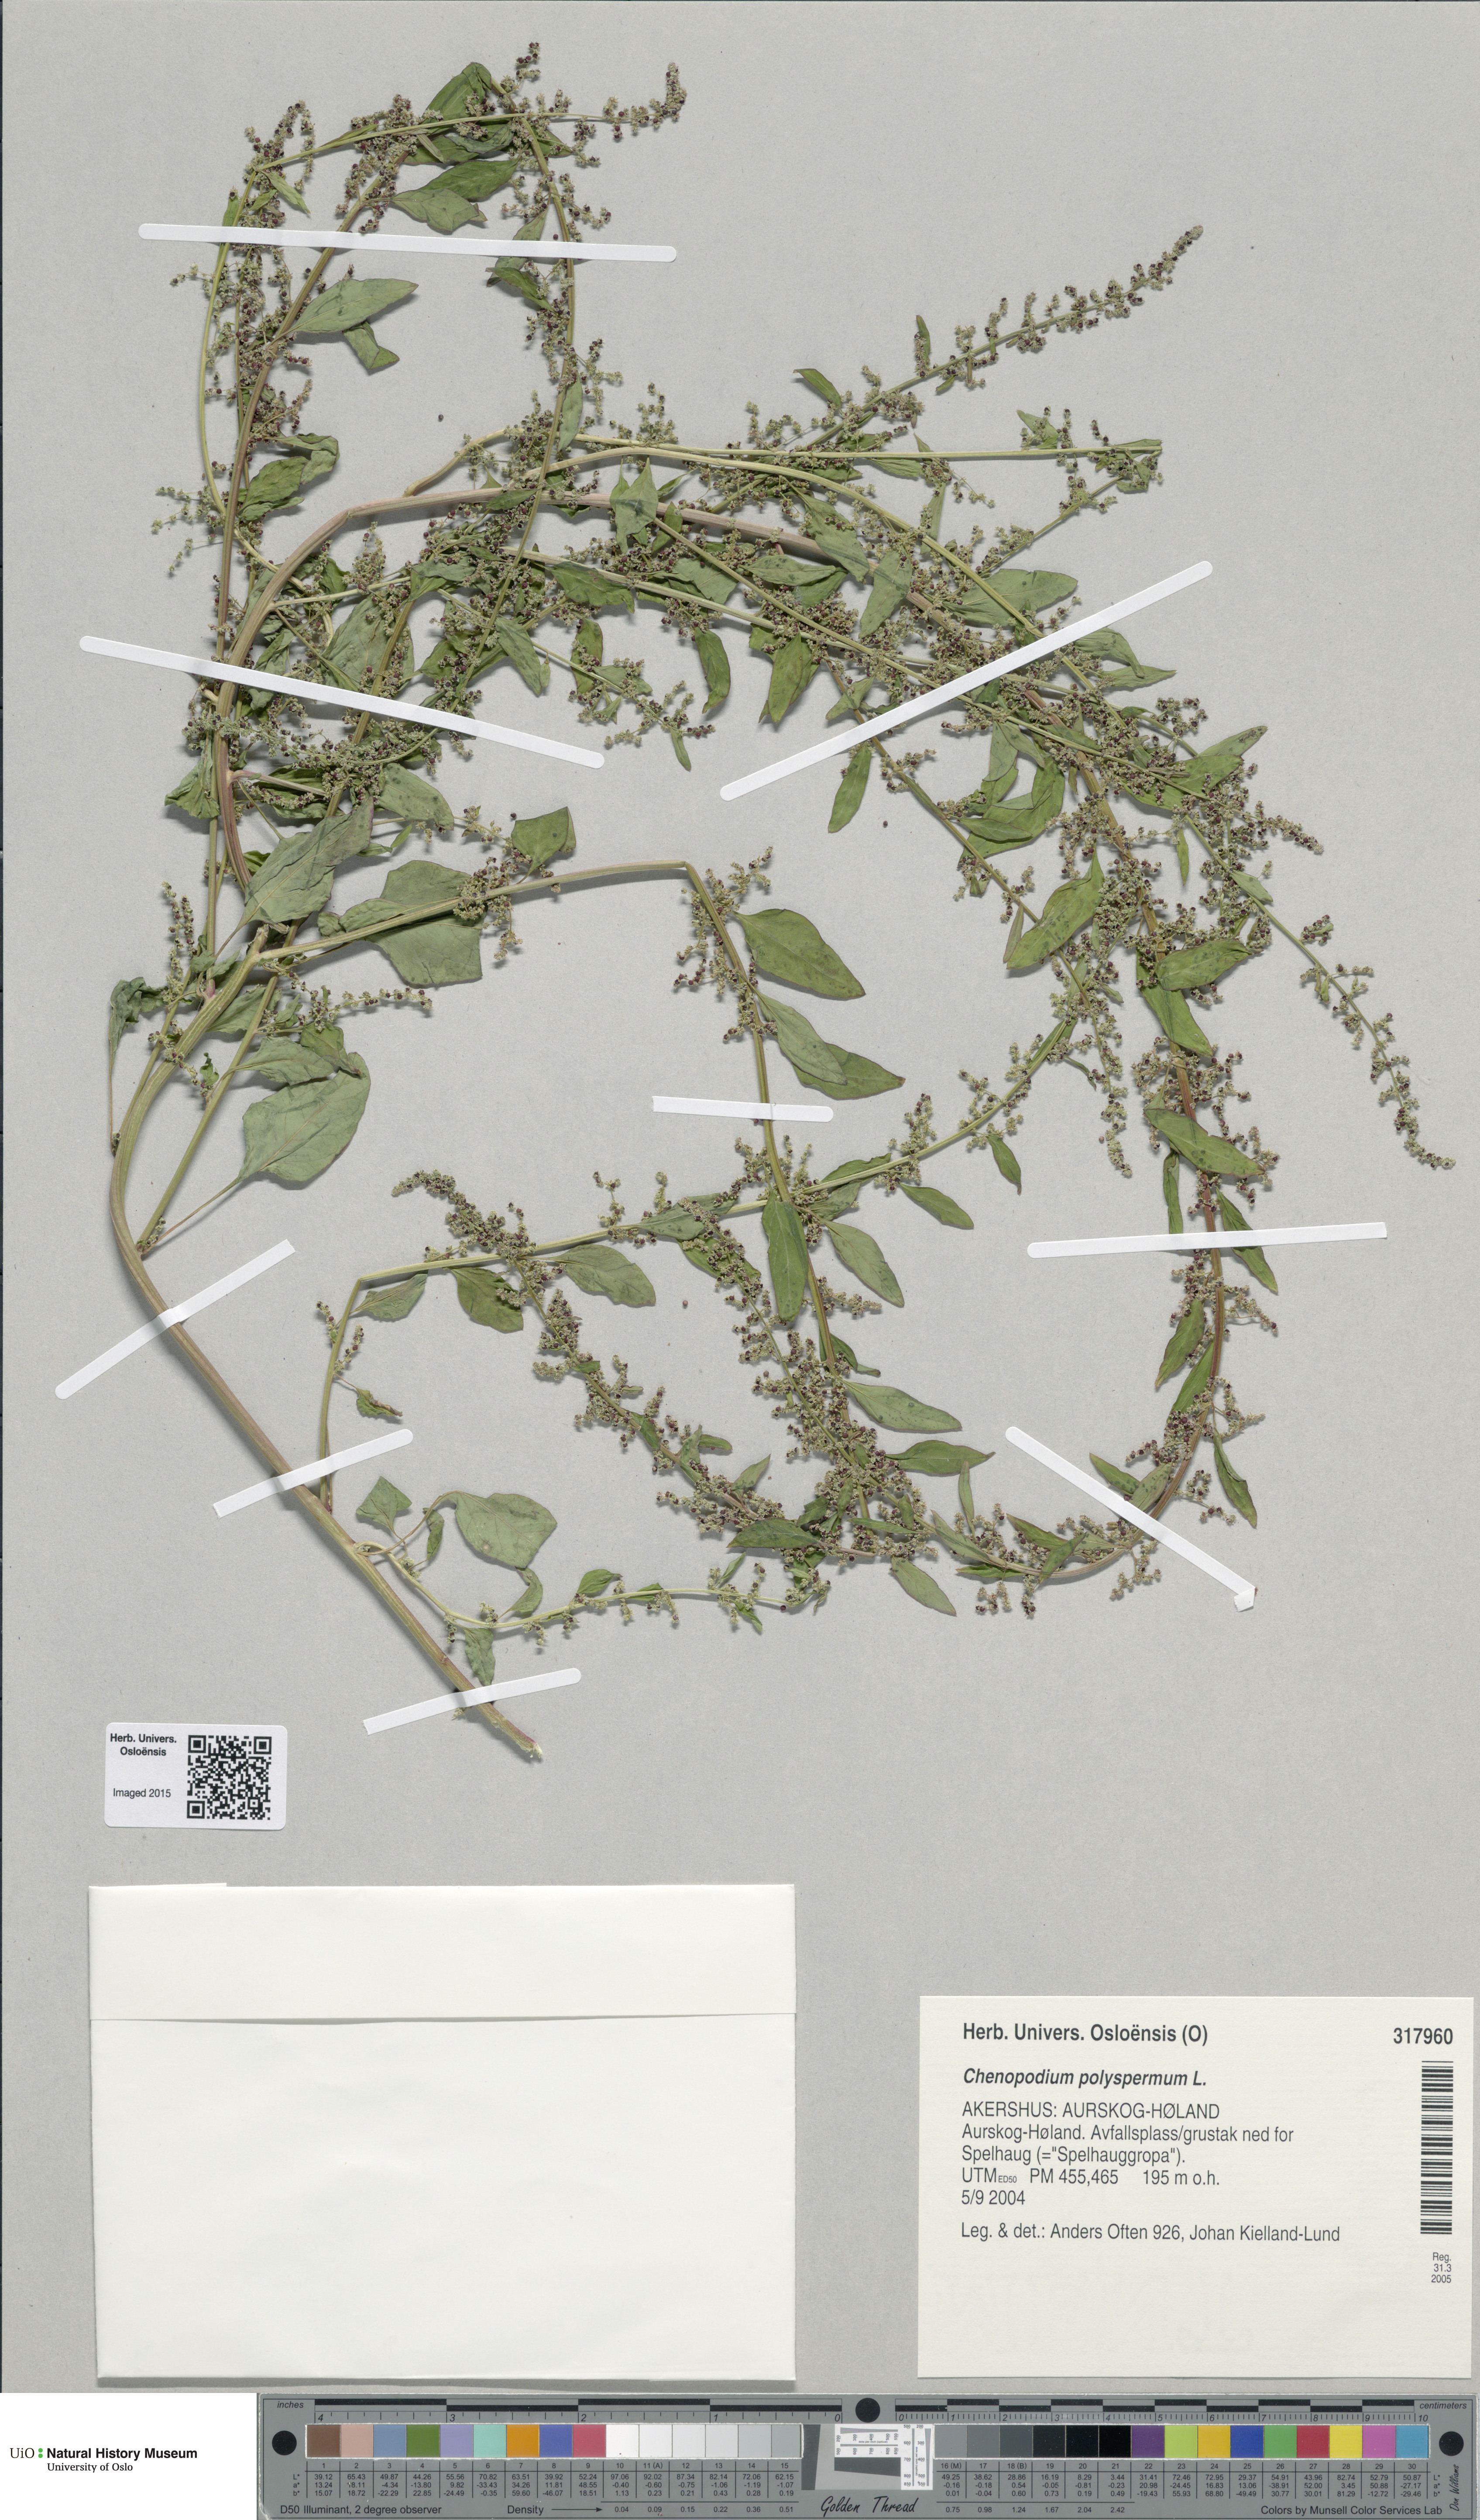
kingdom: Plantae
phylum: Tracheophyta
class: Magnoliopsida
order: Caryophyllales
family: Amaranthaceae
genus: Lipandra
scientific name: Lipandra polysperma
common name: Many-seed goosefoot
